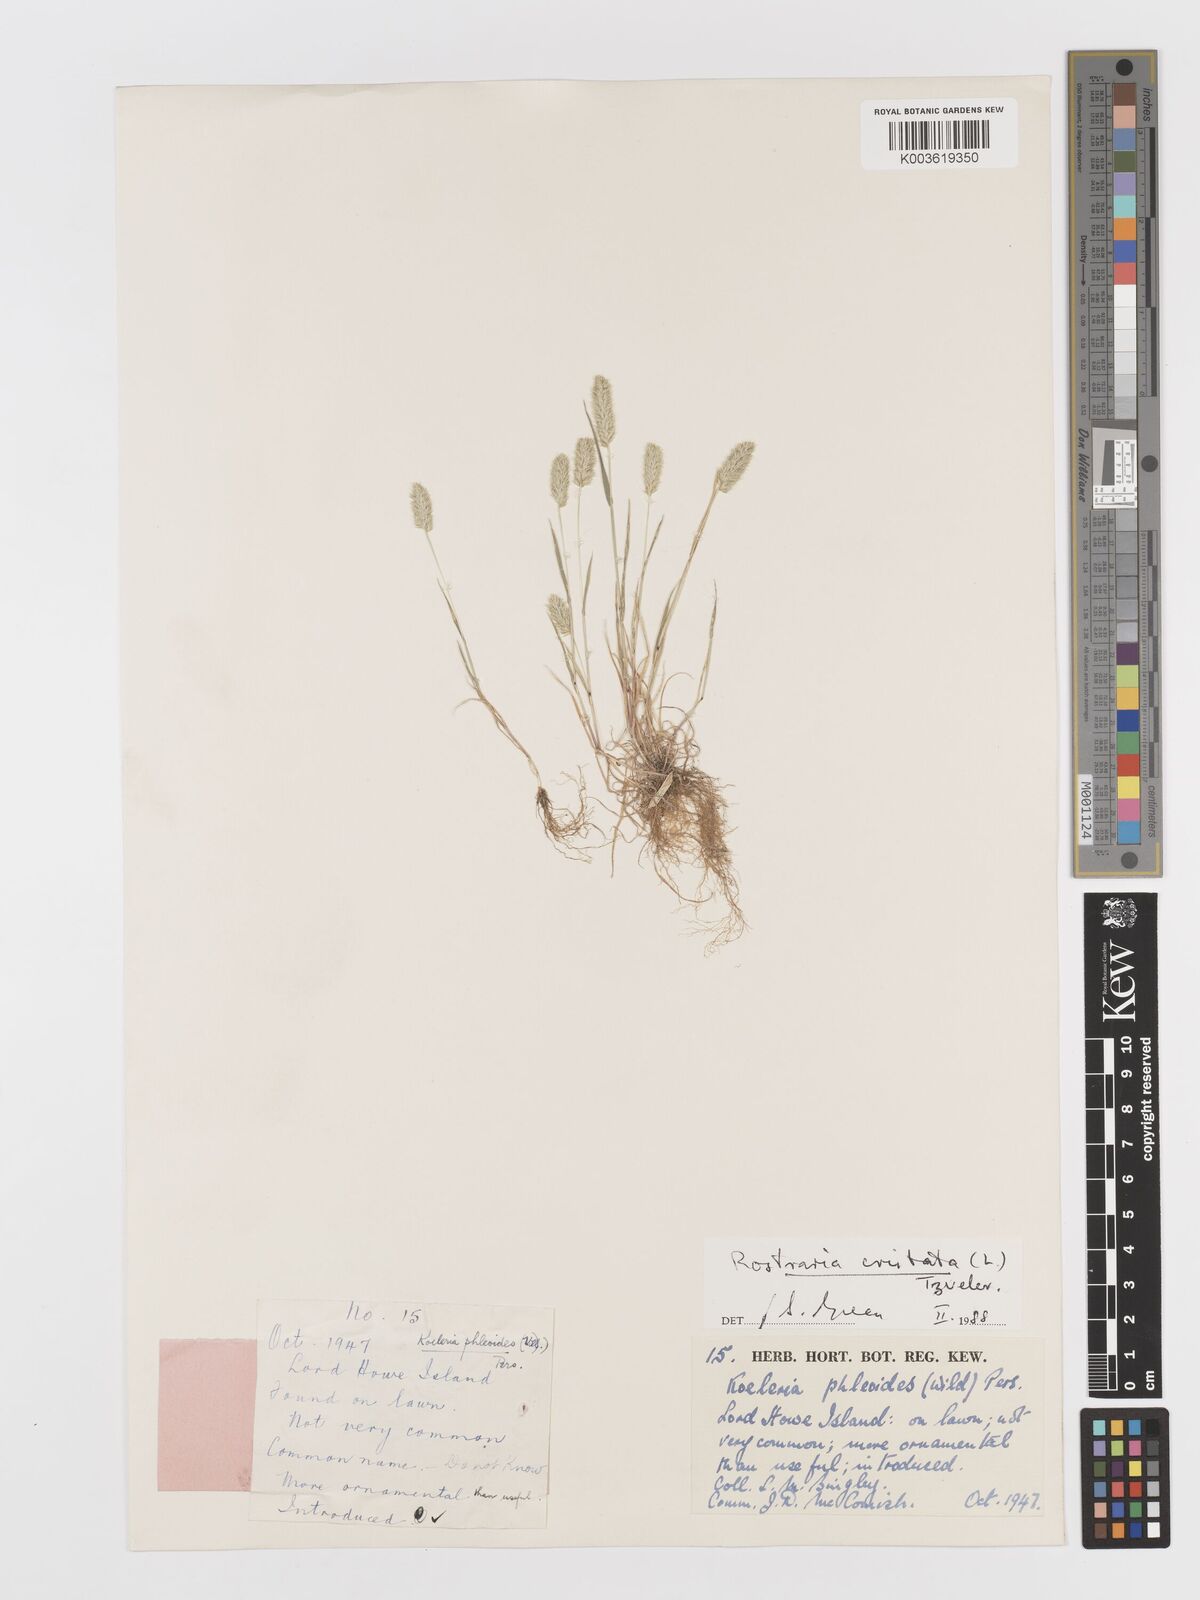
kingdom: Plantae
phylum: Tracheophyta
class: Liliopsida
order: Poales
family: Poaceae
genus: Rostraria
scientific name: Rostraria cristata
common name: Mediterranean hair-grass
